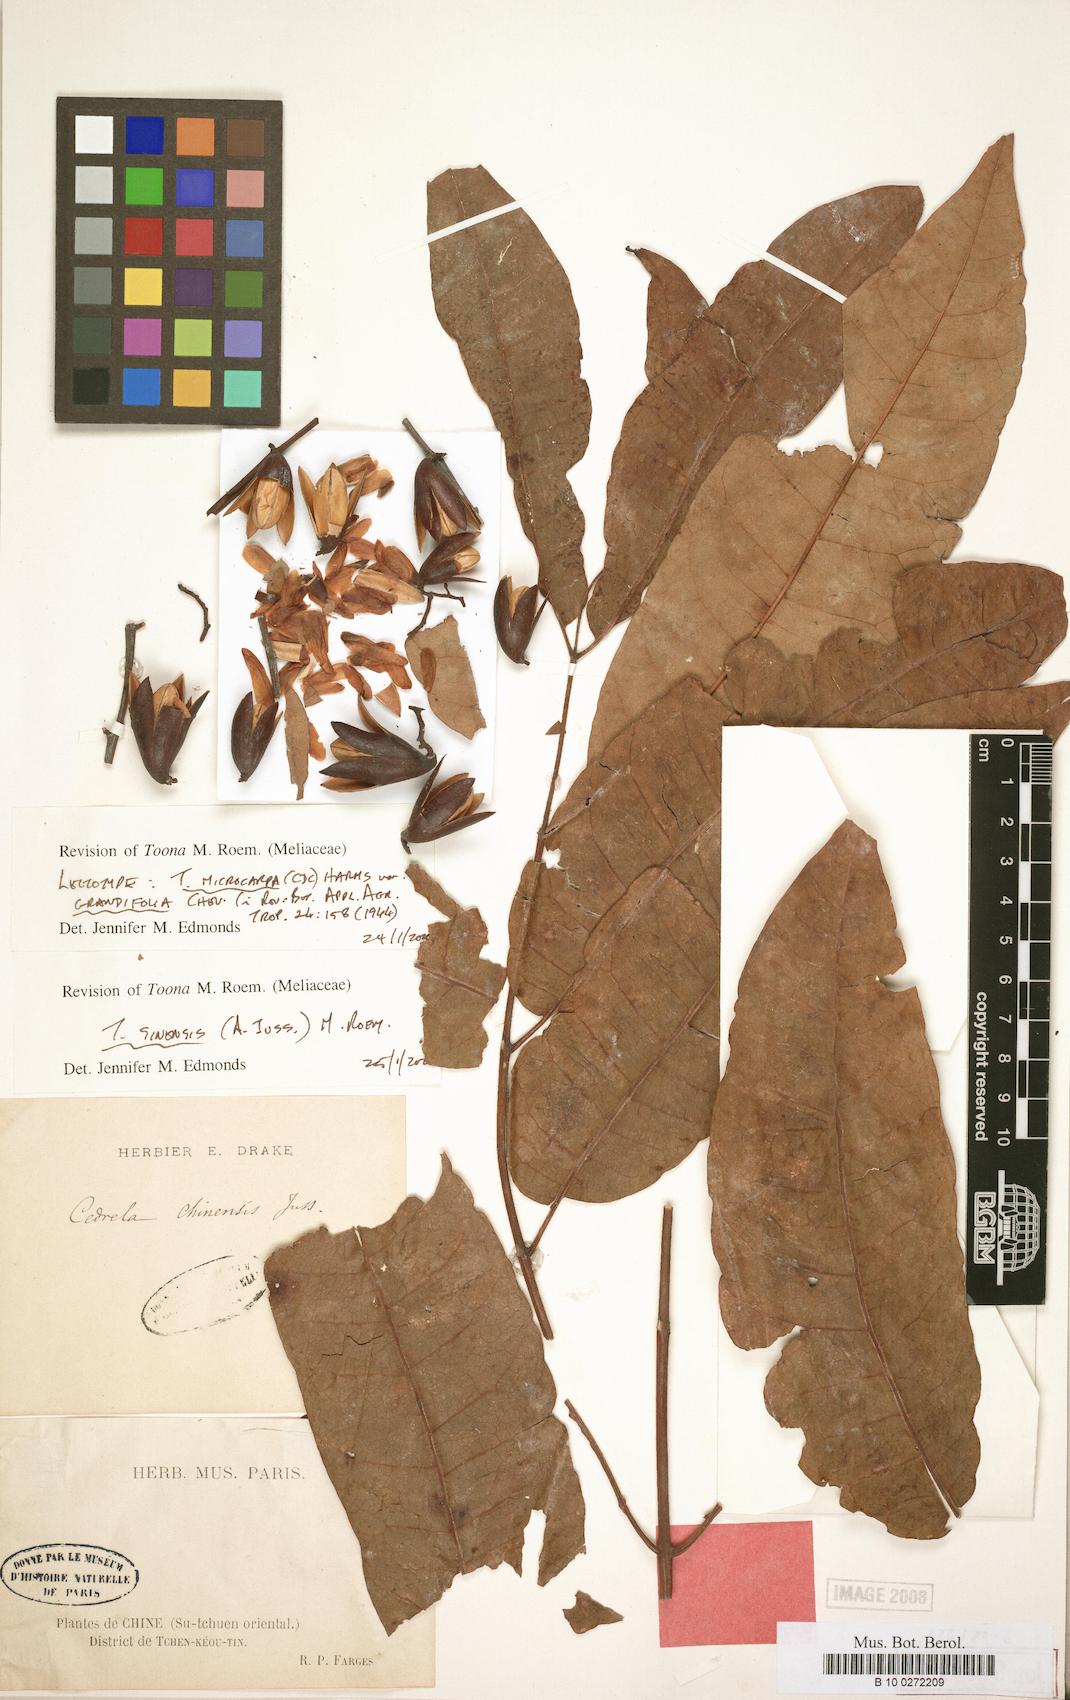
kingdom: Plantae
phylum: Tracheophyta
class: Magnoliopsida
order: Sapindales
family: Meliaceae
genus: Toona
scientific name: Toona sinensis
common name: Red toon
